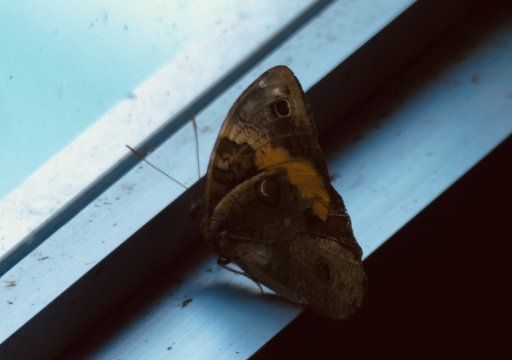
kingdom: Animalia
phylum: Arthropoda
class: Insecta
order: Lepidoptera
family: Nymphalidae
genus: Opsiphanes
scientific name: Opsiphanes cassina
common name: Split-banded Owl-Butterfly
